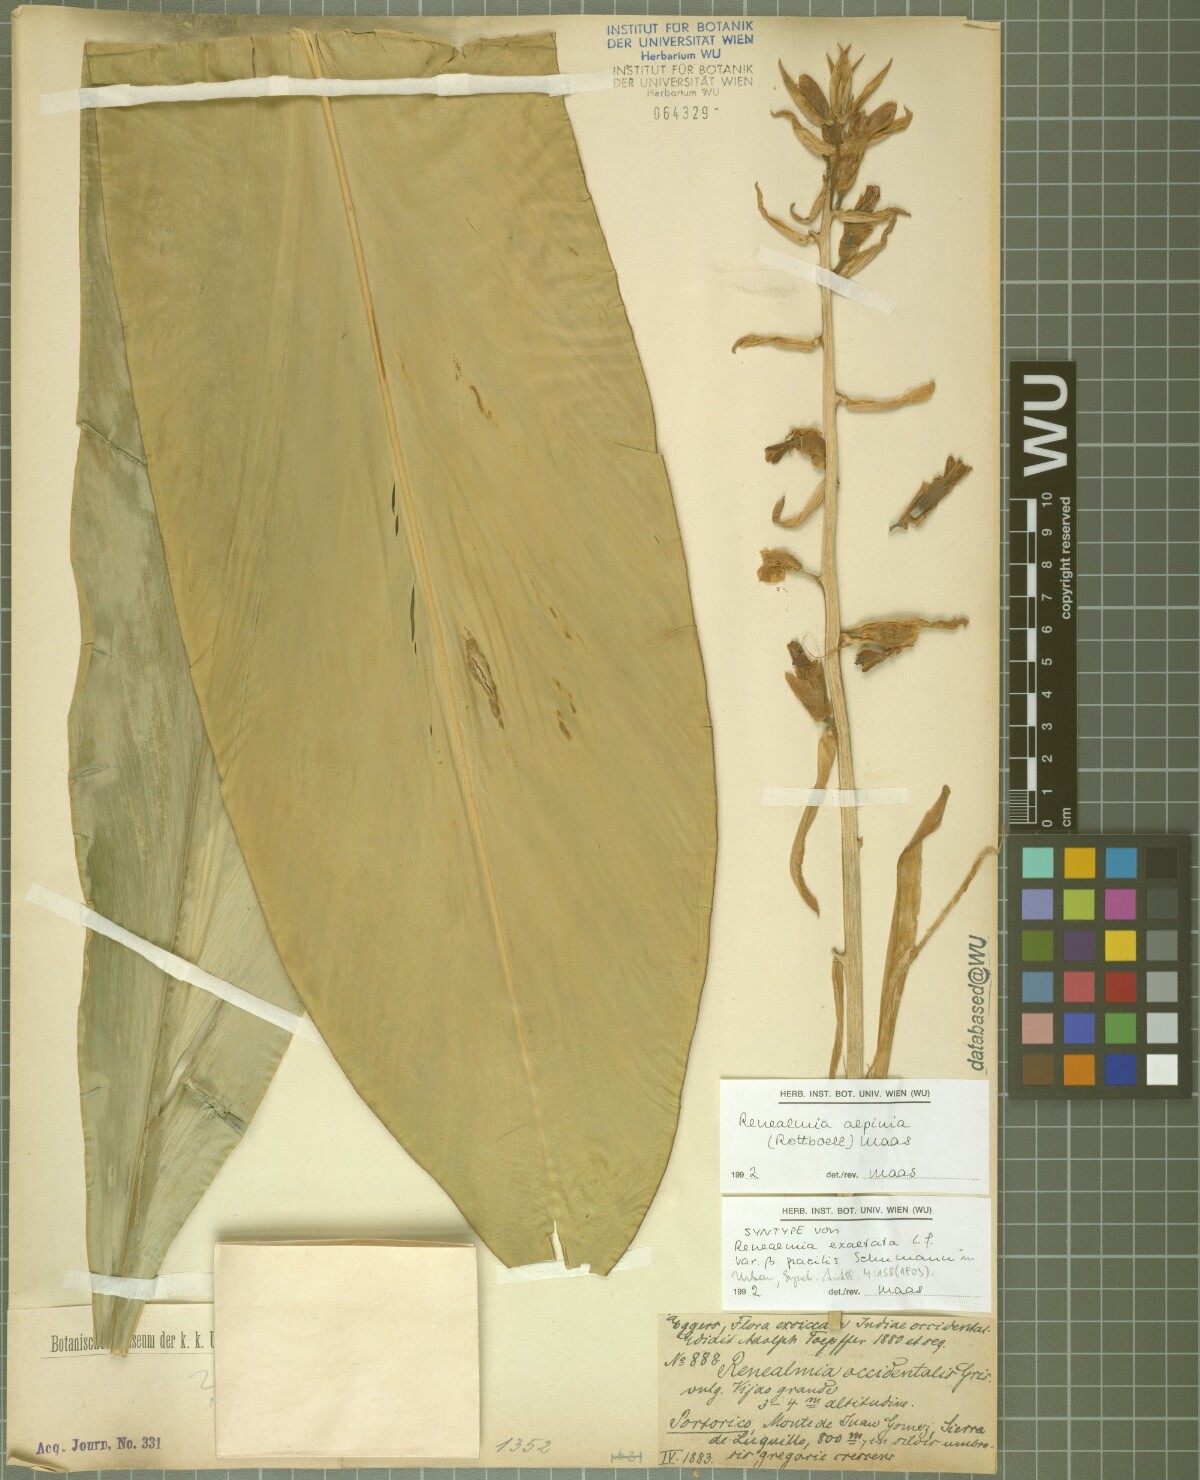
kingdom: Plantae
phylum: Tracheophyta
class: Liliopsida
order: Zingiberales
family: Zingiberaceae
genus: Renealmia
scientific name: Renealmia alpinia
